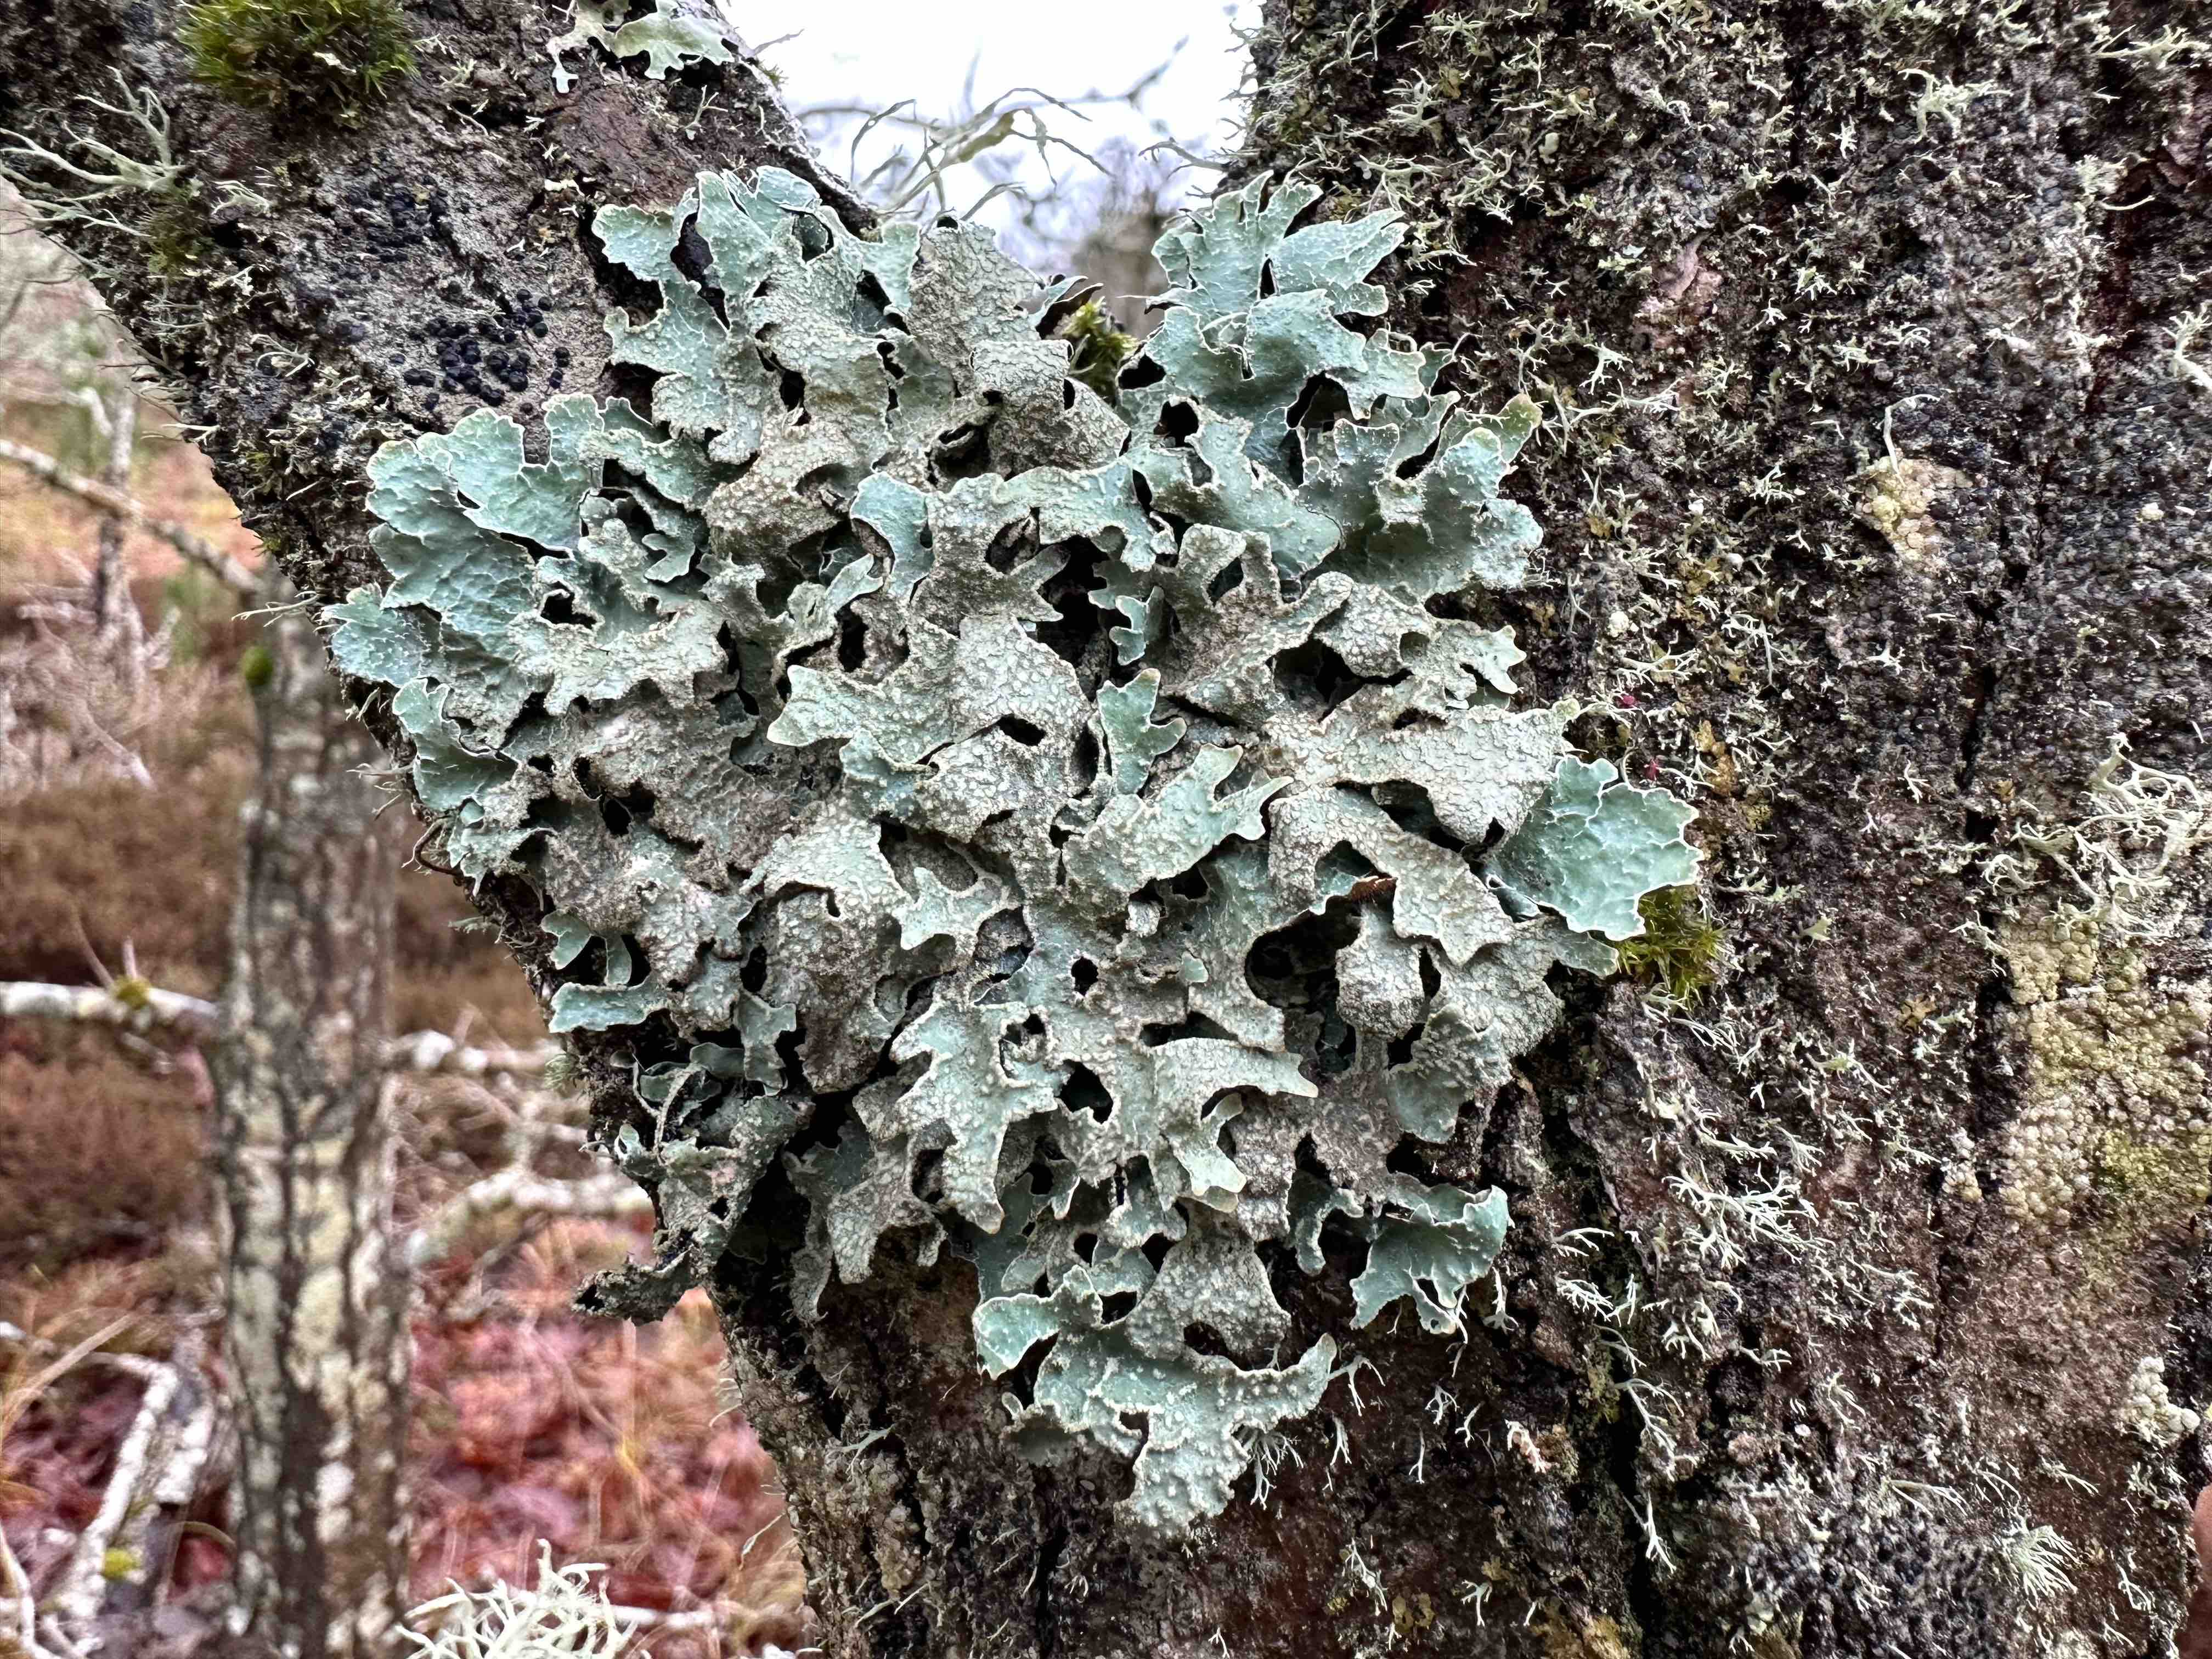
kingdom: Fungi
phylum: Ascomycota
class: Lecanoromycetes
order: Lecanorales
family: Parmeliaceae
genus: Parmelia
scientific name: Parmelia sulcata
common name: rynket skållav
